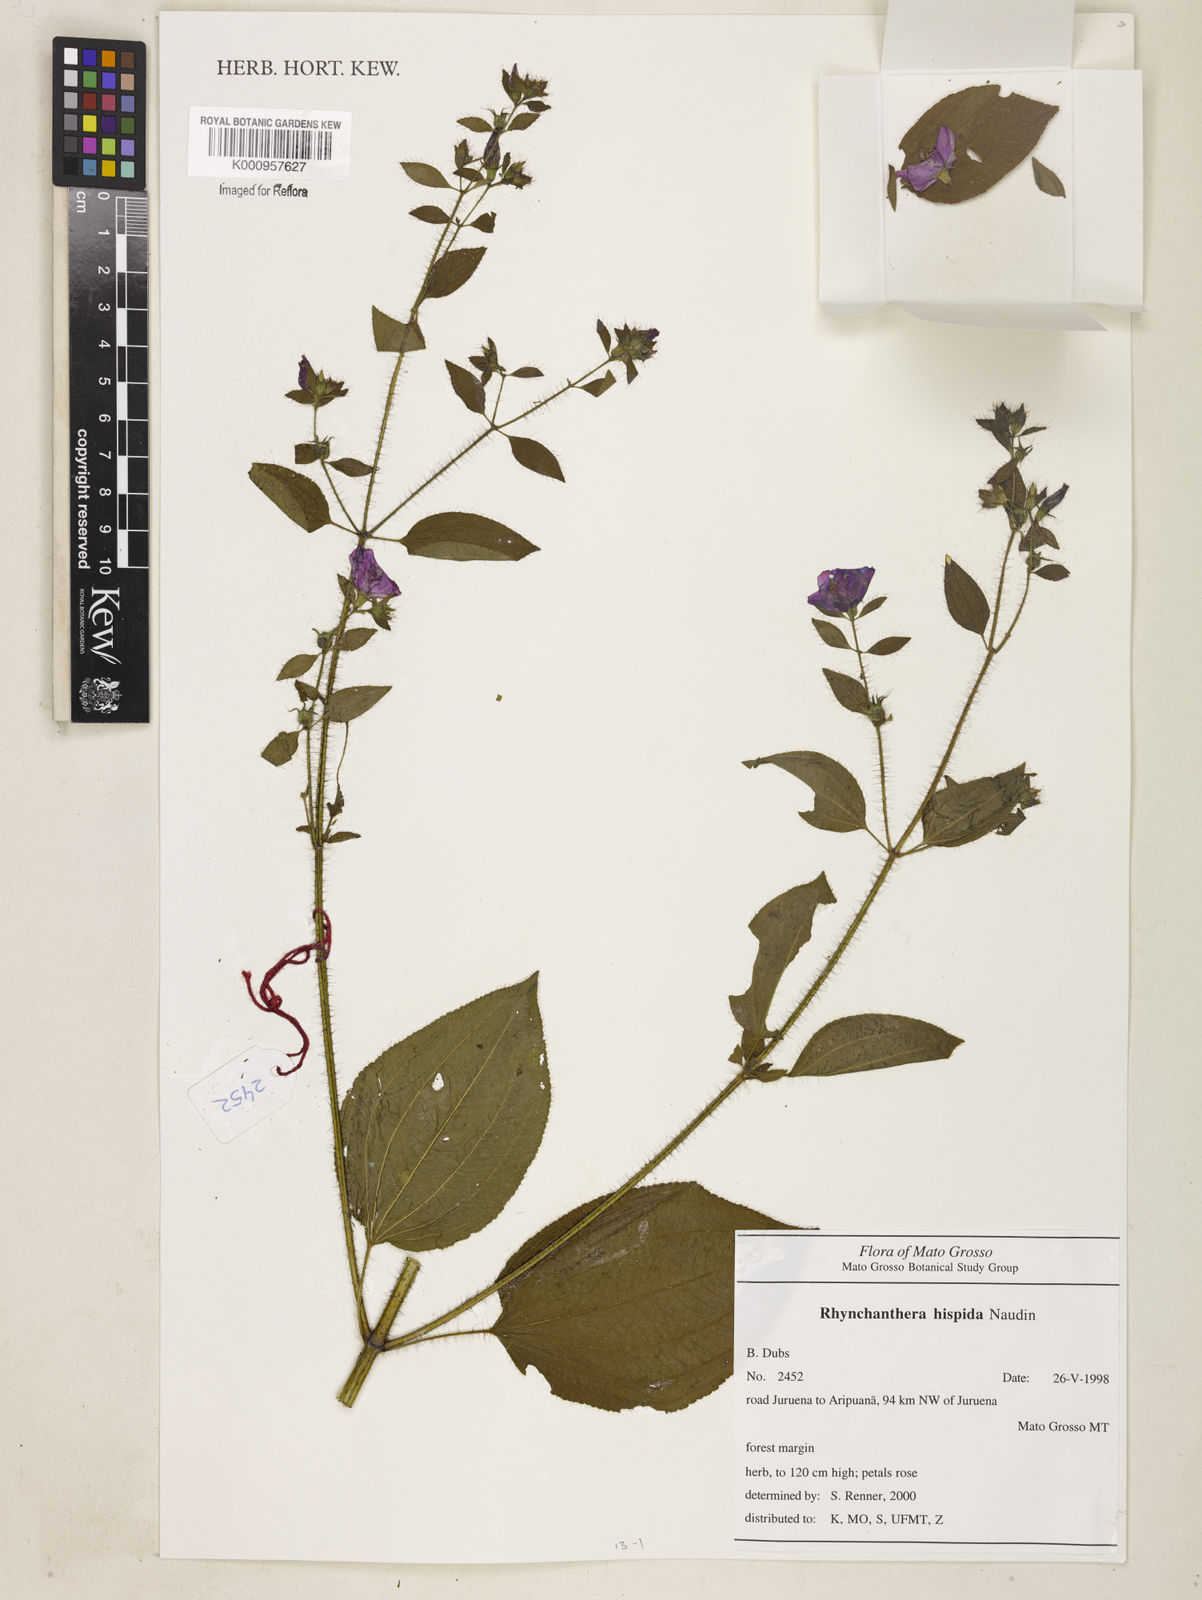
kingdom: Plantae
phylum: Tracheophyta
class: Magnoliopsida
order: Myrtales
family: Melastomataceae
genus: Rhynchanthera
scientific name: Rhynchanthera hispida
